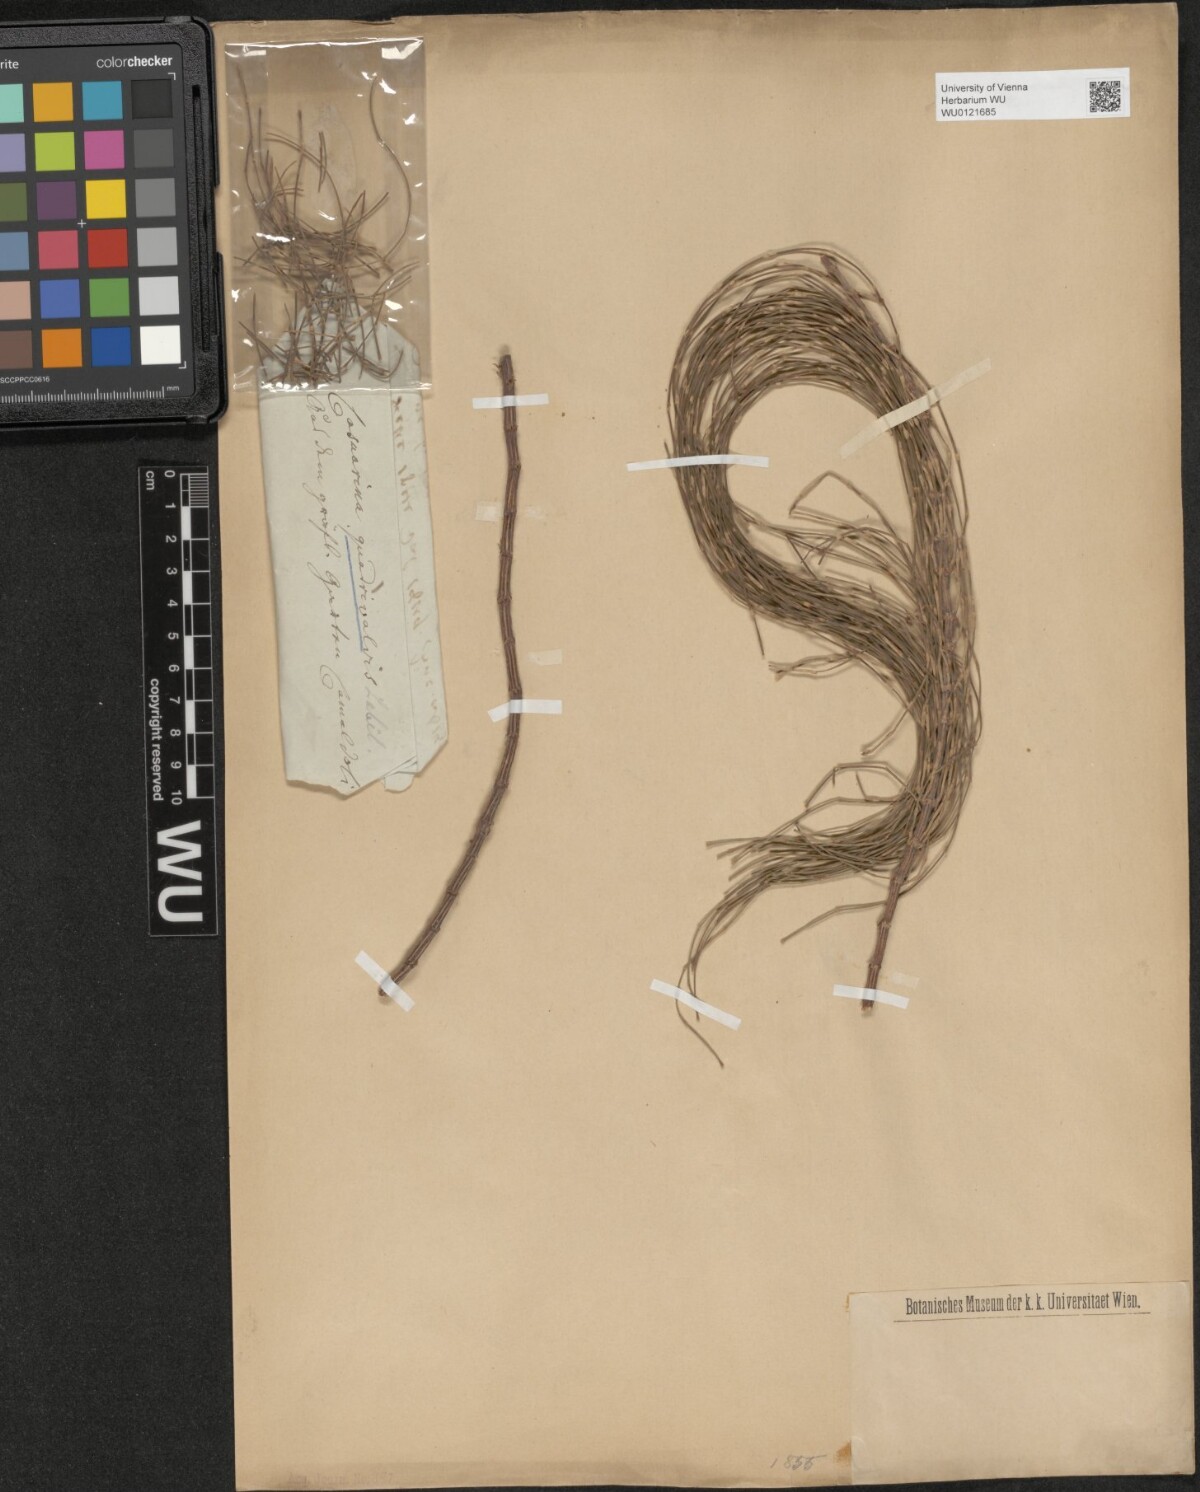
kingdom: Plantae
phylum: Tracheophyta
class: Magnoliopsida
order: Fagales
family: Casuarinaceae
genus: Allocasuarina
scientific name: Allocasuarina verticillata
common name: Drooping she-oak
